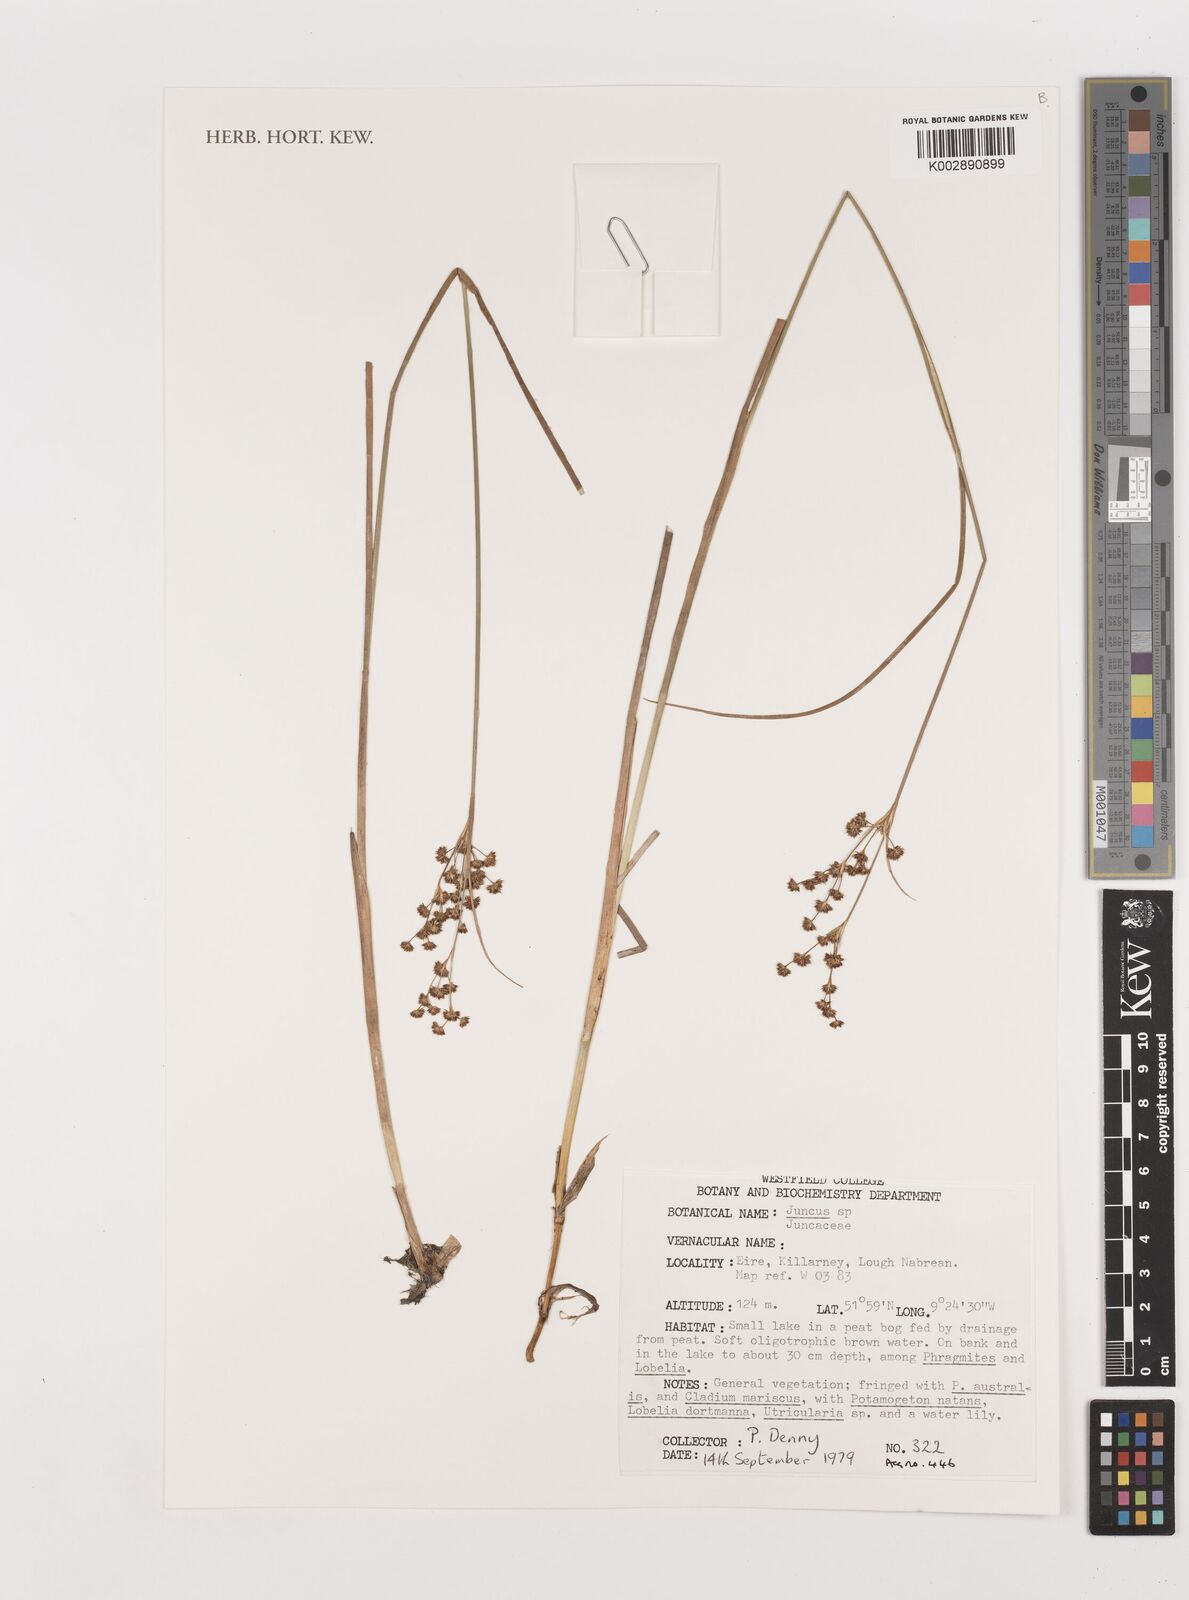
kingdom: Plantae
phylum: Tracheophyta
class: Liliopsida
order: Poales
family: Juncaceae
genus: Juncus
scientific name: Juncus
